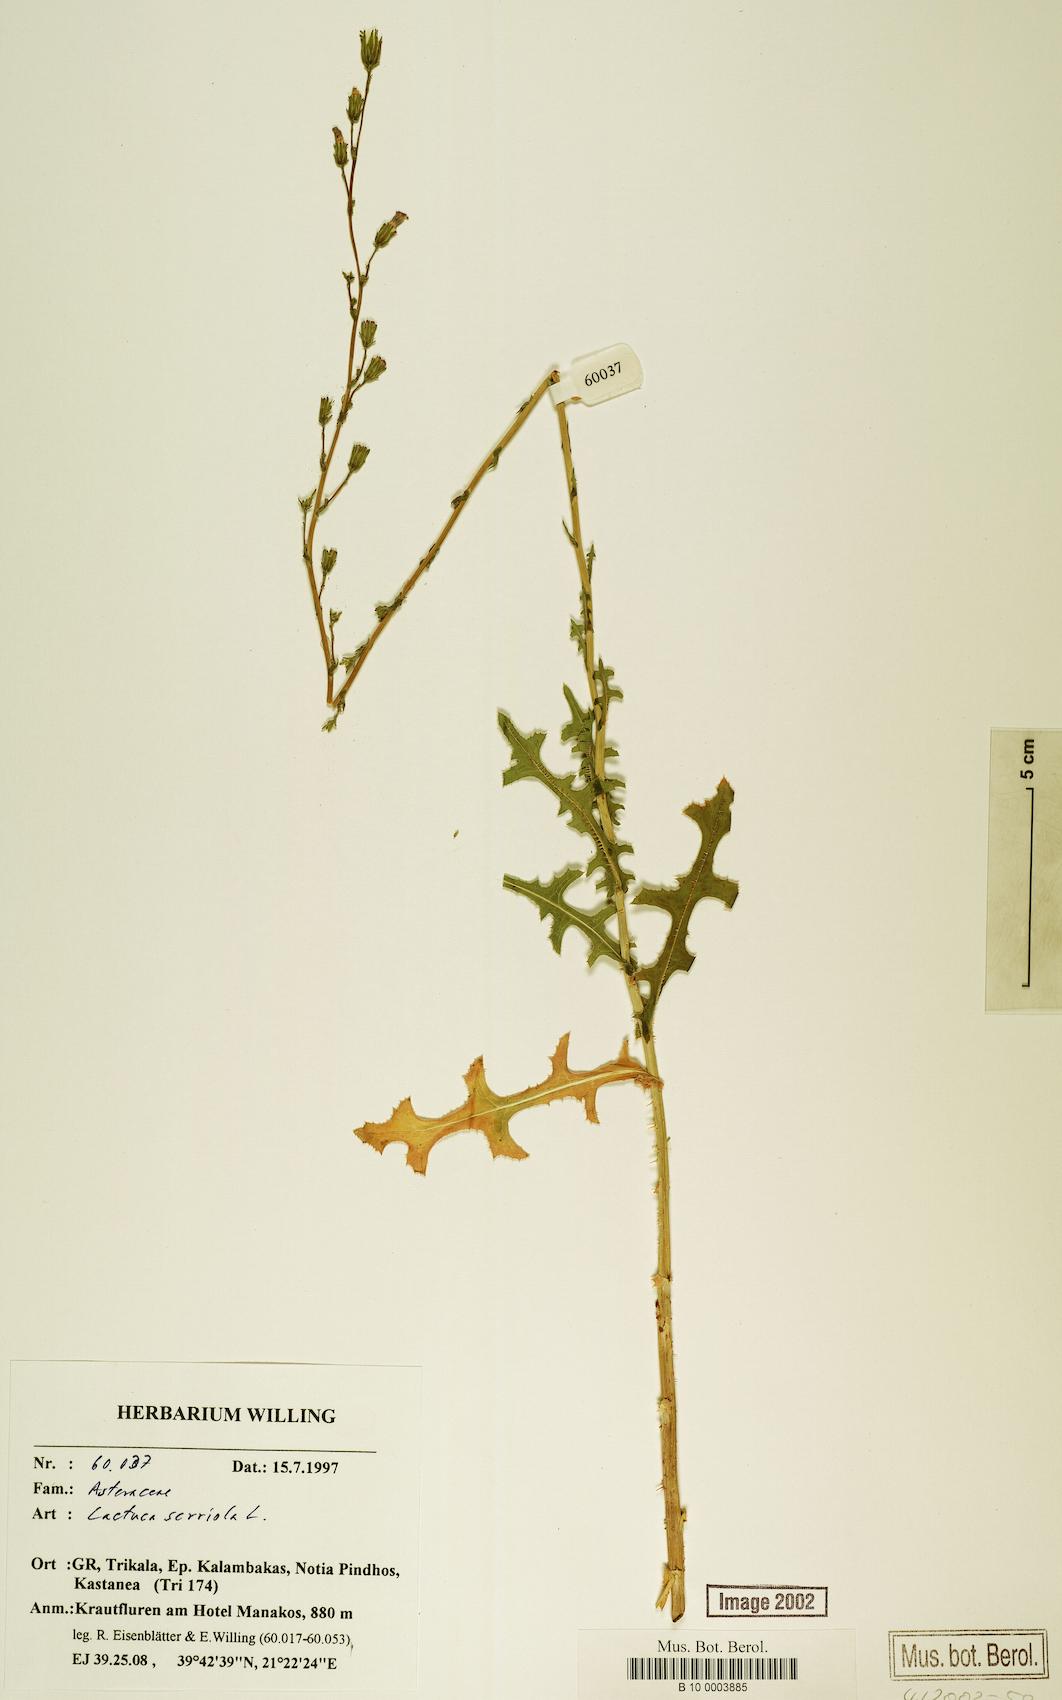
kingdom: Plantae
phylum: Tracheophyta
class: Magnoliopsida
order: Asterales
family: Asteraceae
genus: Lactuca
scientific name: Lactuca serriola
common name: Prickly lettuce
